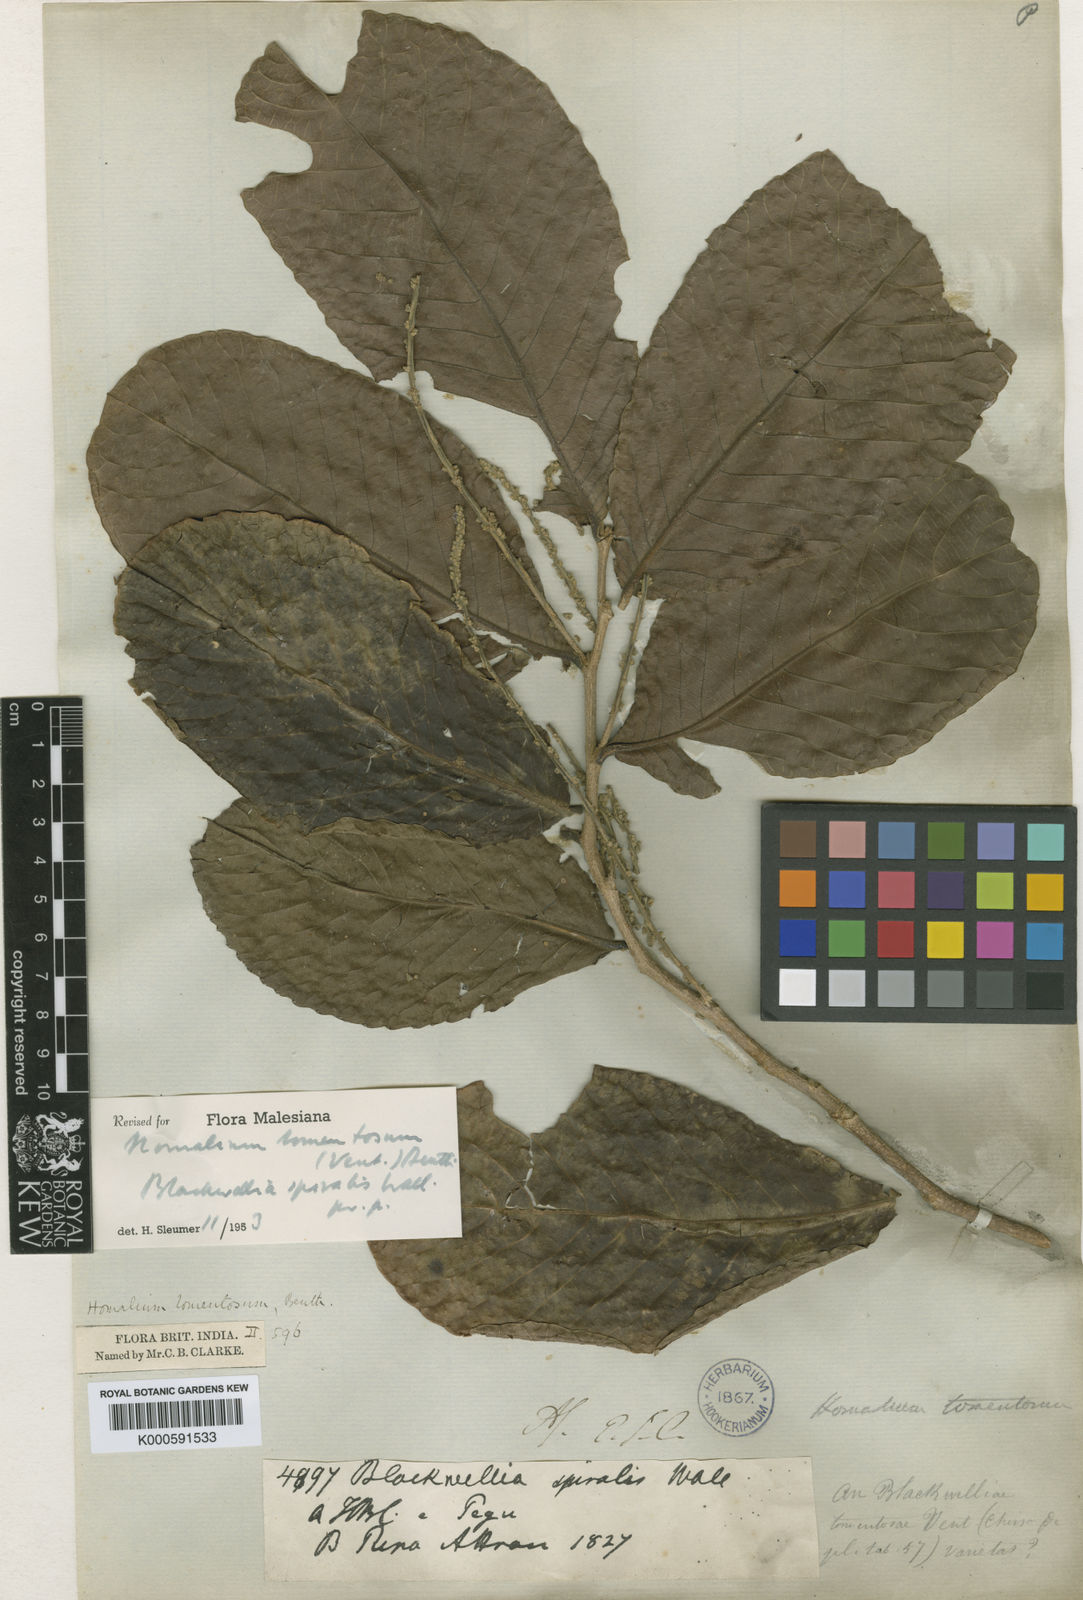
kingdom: Plantae
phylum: Tracheophyta
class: Magnoliopsida
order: Malpighiales
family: Salicaceae
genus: Homalium
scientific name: Homalium foetidum
